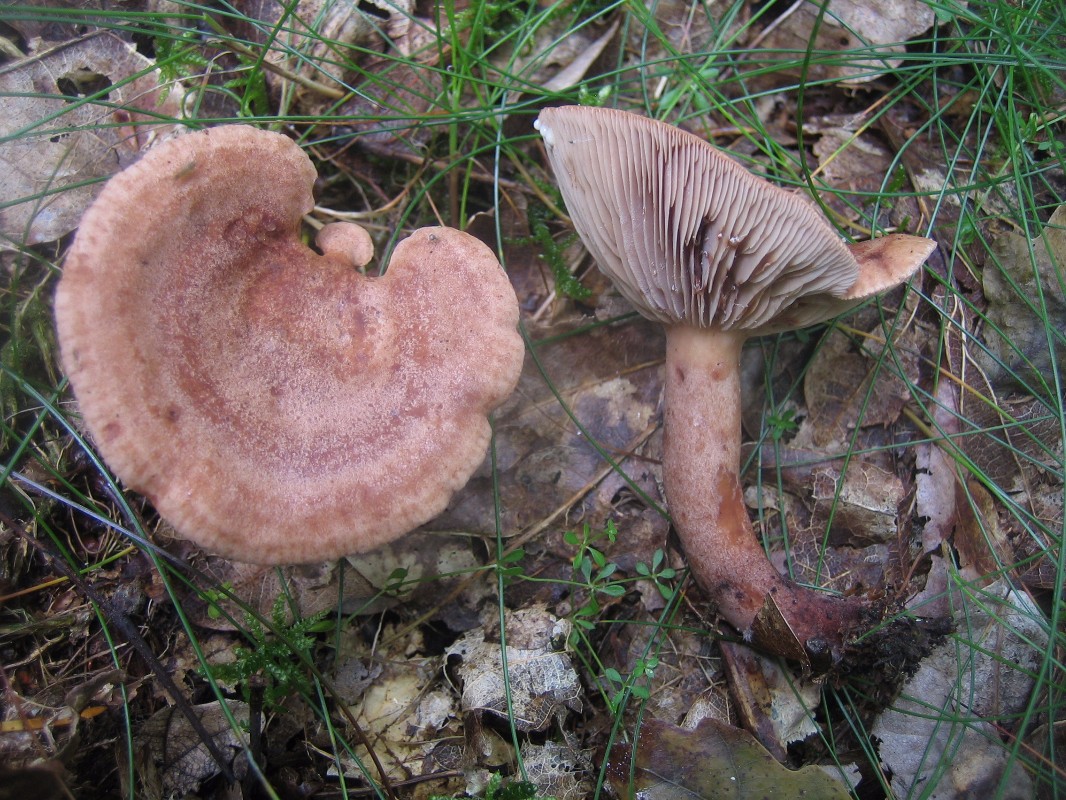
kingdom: Fungi
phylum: Basidiomycota
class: Agaricomycetes
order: Russulales
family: Russulaceae
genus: Lactarius
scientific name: Lactarius quietus
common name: ege-mælkehat
